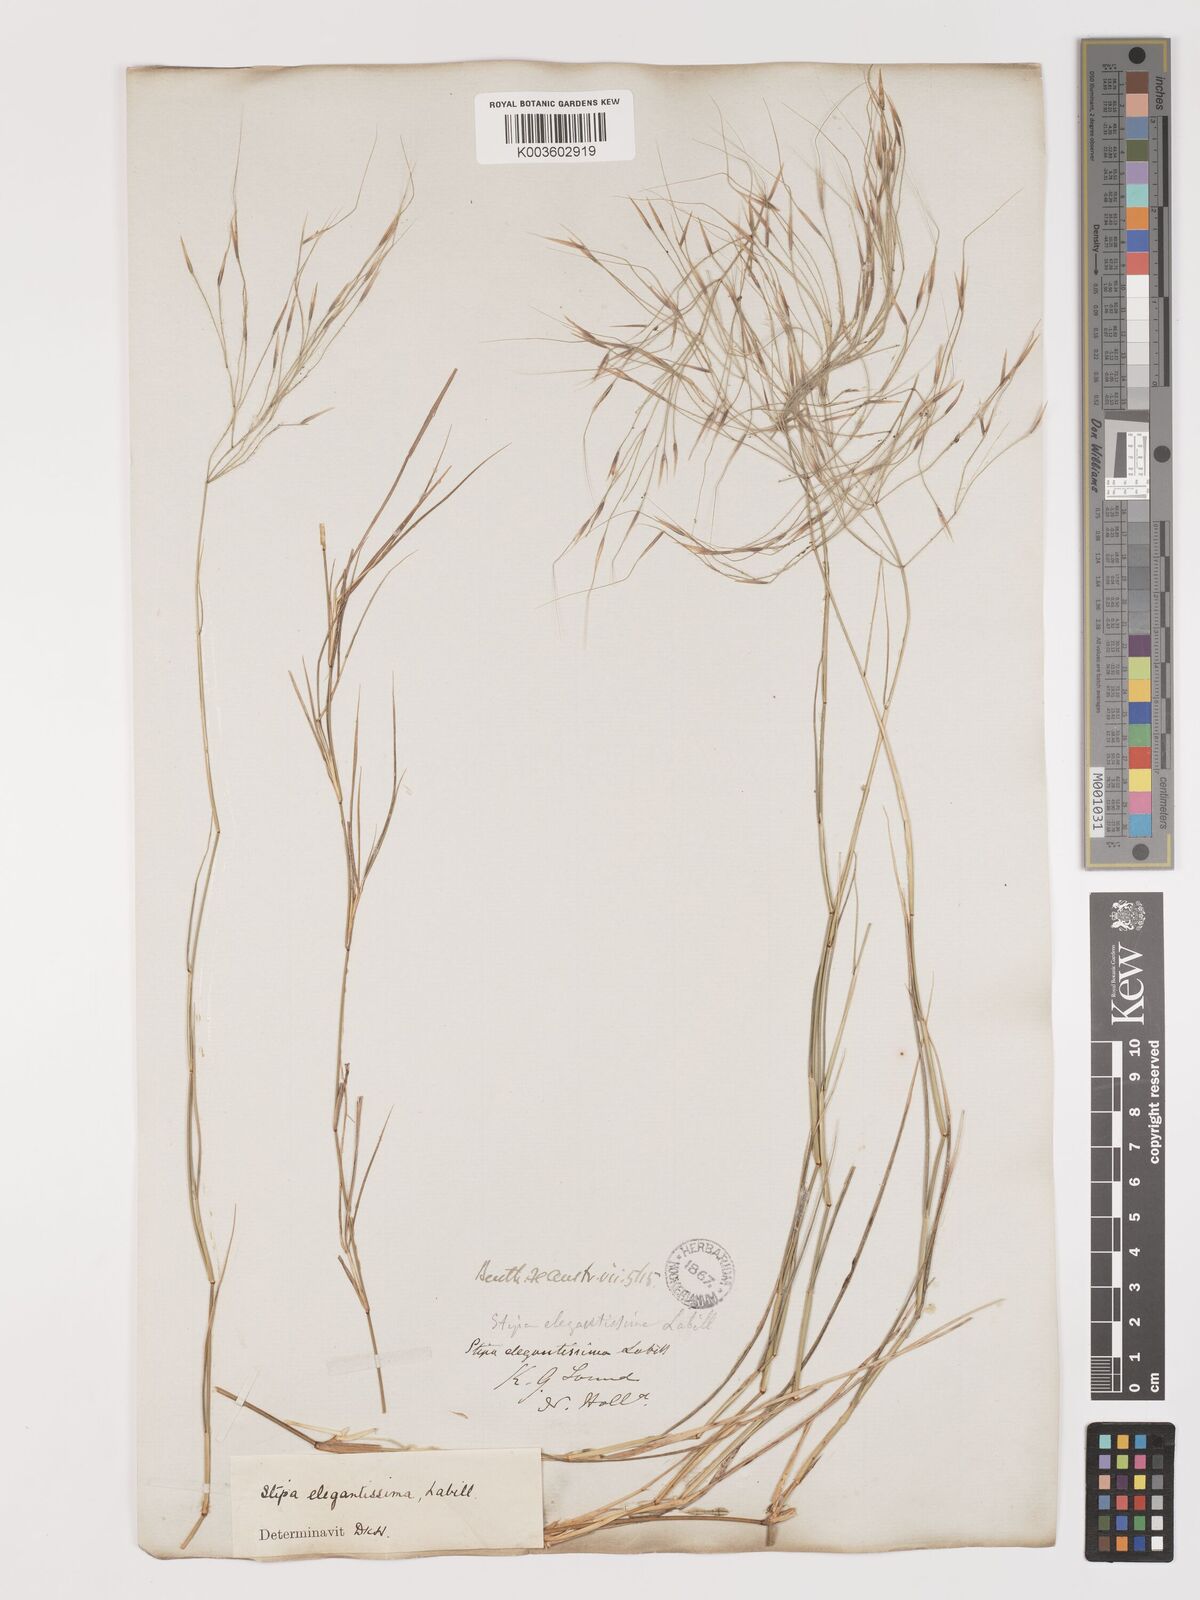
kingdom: Plantae
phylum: Tracheophyta
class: Liliopsida
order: Poales
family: Poaceae
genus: Austrostipa
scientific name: Austrostipa elegantissima
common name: Feather spear grass
